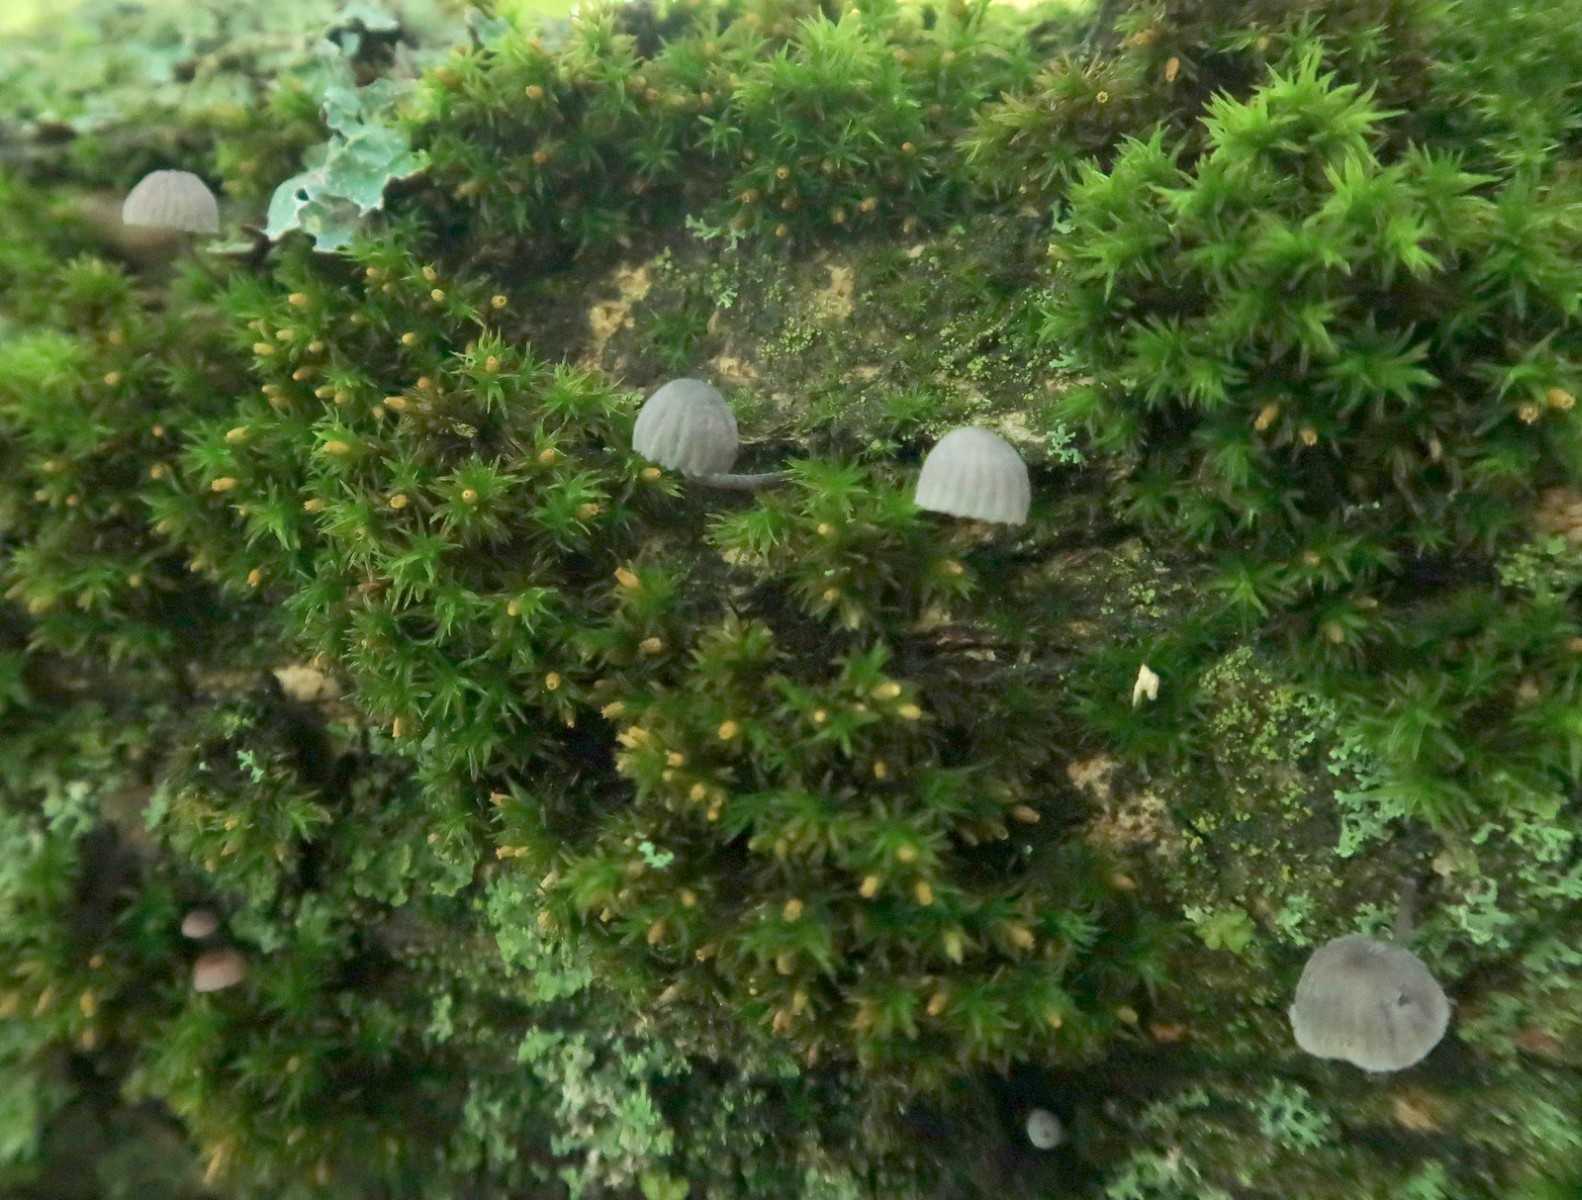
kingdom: Fungi
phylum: Basidiomycota
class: Agaricomycetes
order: Agaricales
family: Mycenaceae
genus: Mycena
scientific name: Mycena pseudocorticola
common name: gråblå bark-huesvamp
